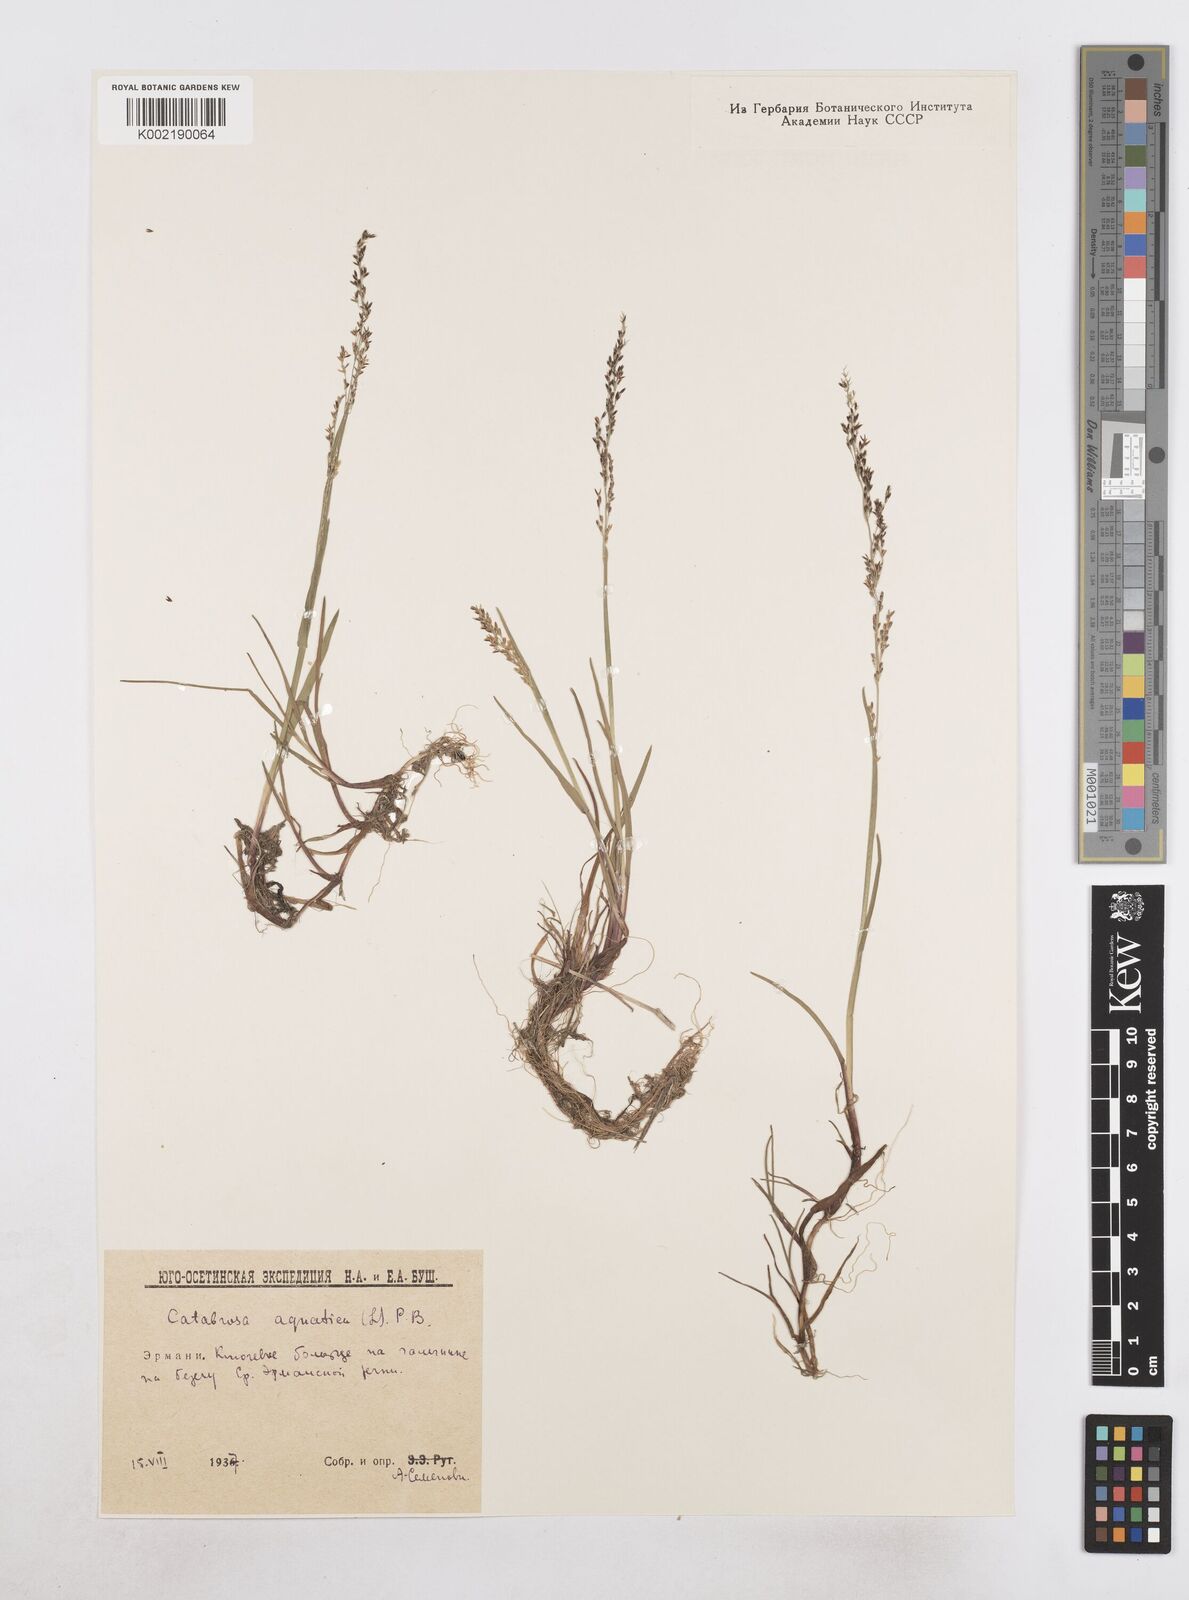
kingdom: Plantae
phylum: Tracheophyta
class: Liliopsida
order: Poales
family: Poaceae
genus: Catabrosa
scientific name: Catabrosa aquatica
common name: Whorl-grass
